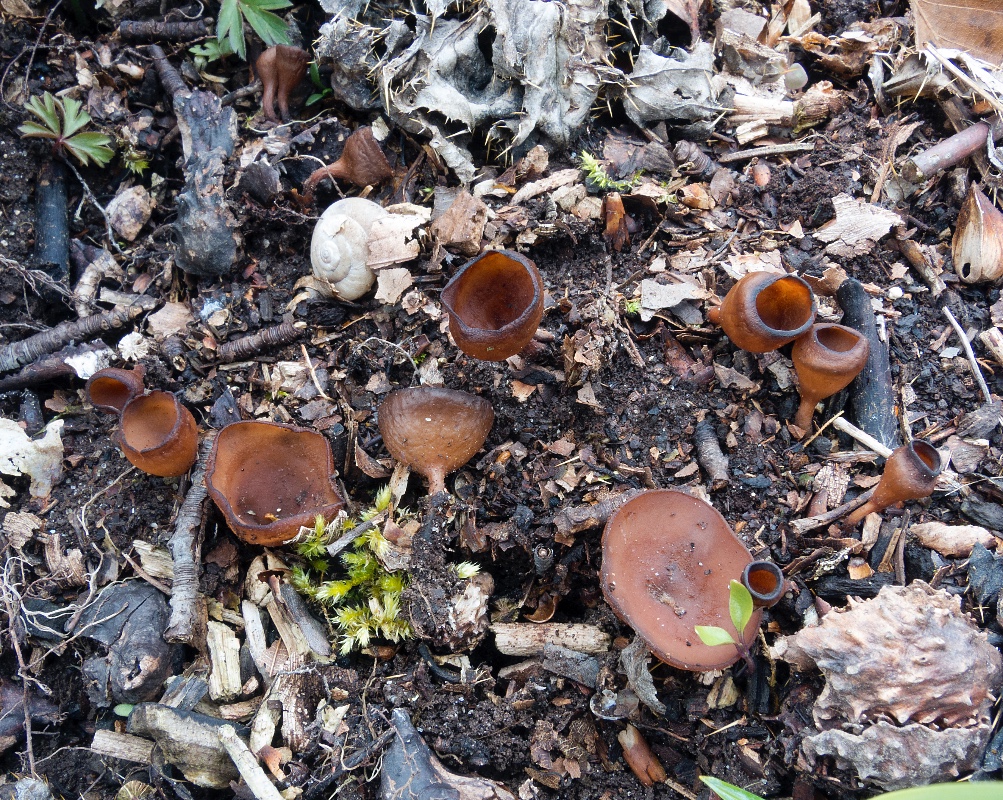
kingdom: Fungi
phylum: Ascomycota
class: Leotiomycetes
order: Helotiales
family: Sclerotiniaceae
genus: Dumontinia
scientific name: Dumontinia tuberosa
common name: anemone-knoldskive
